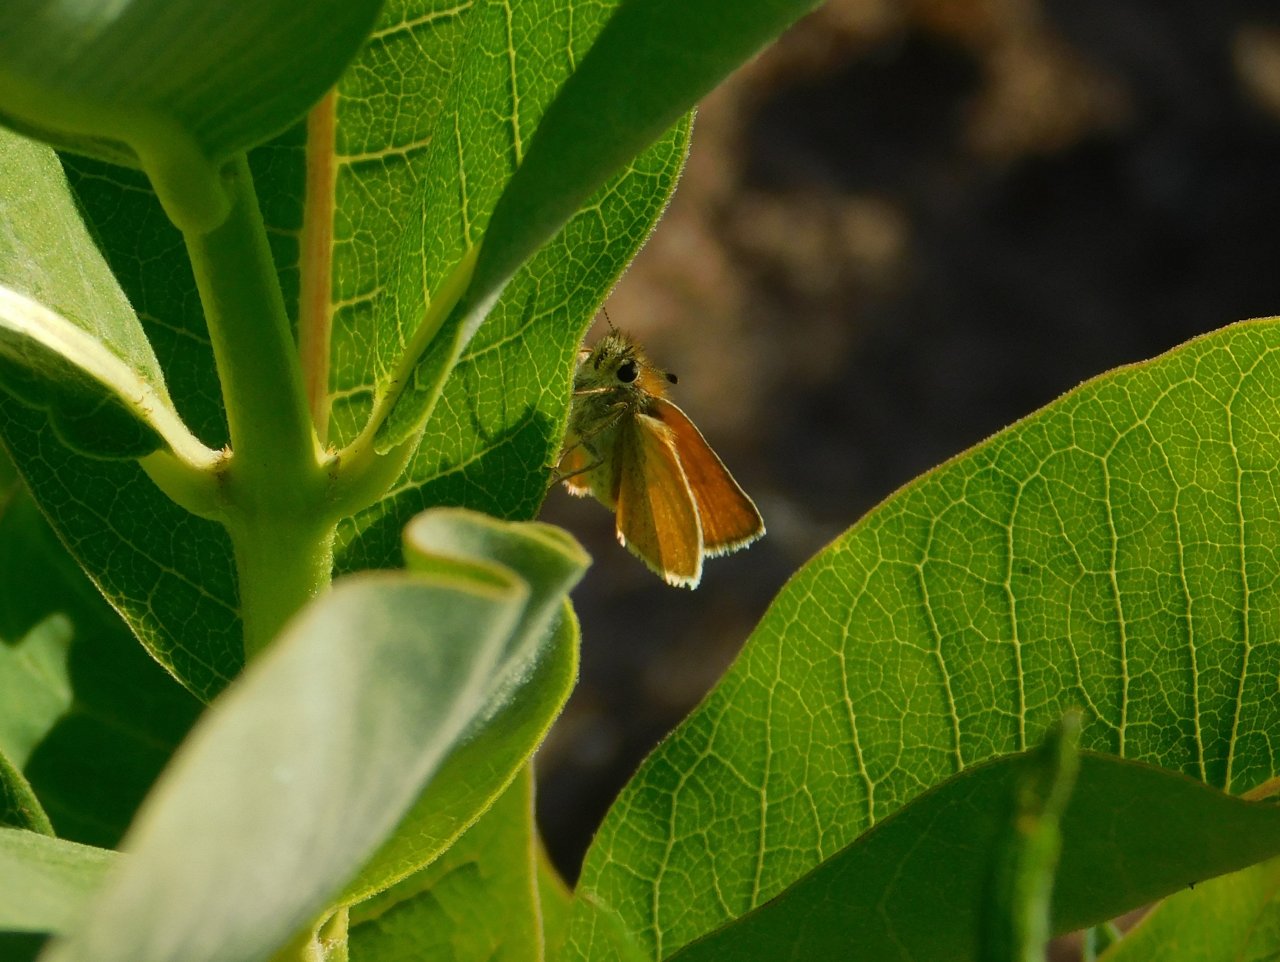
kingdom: Animalia
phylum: Arthropoda
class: Insecta
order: Lepidoptera
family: Hesperiidae
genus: Thymelicus
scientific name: Thymelicus lineola
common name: European Skipper
